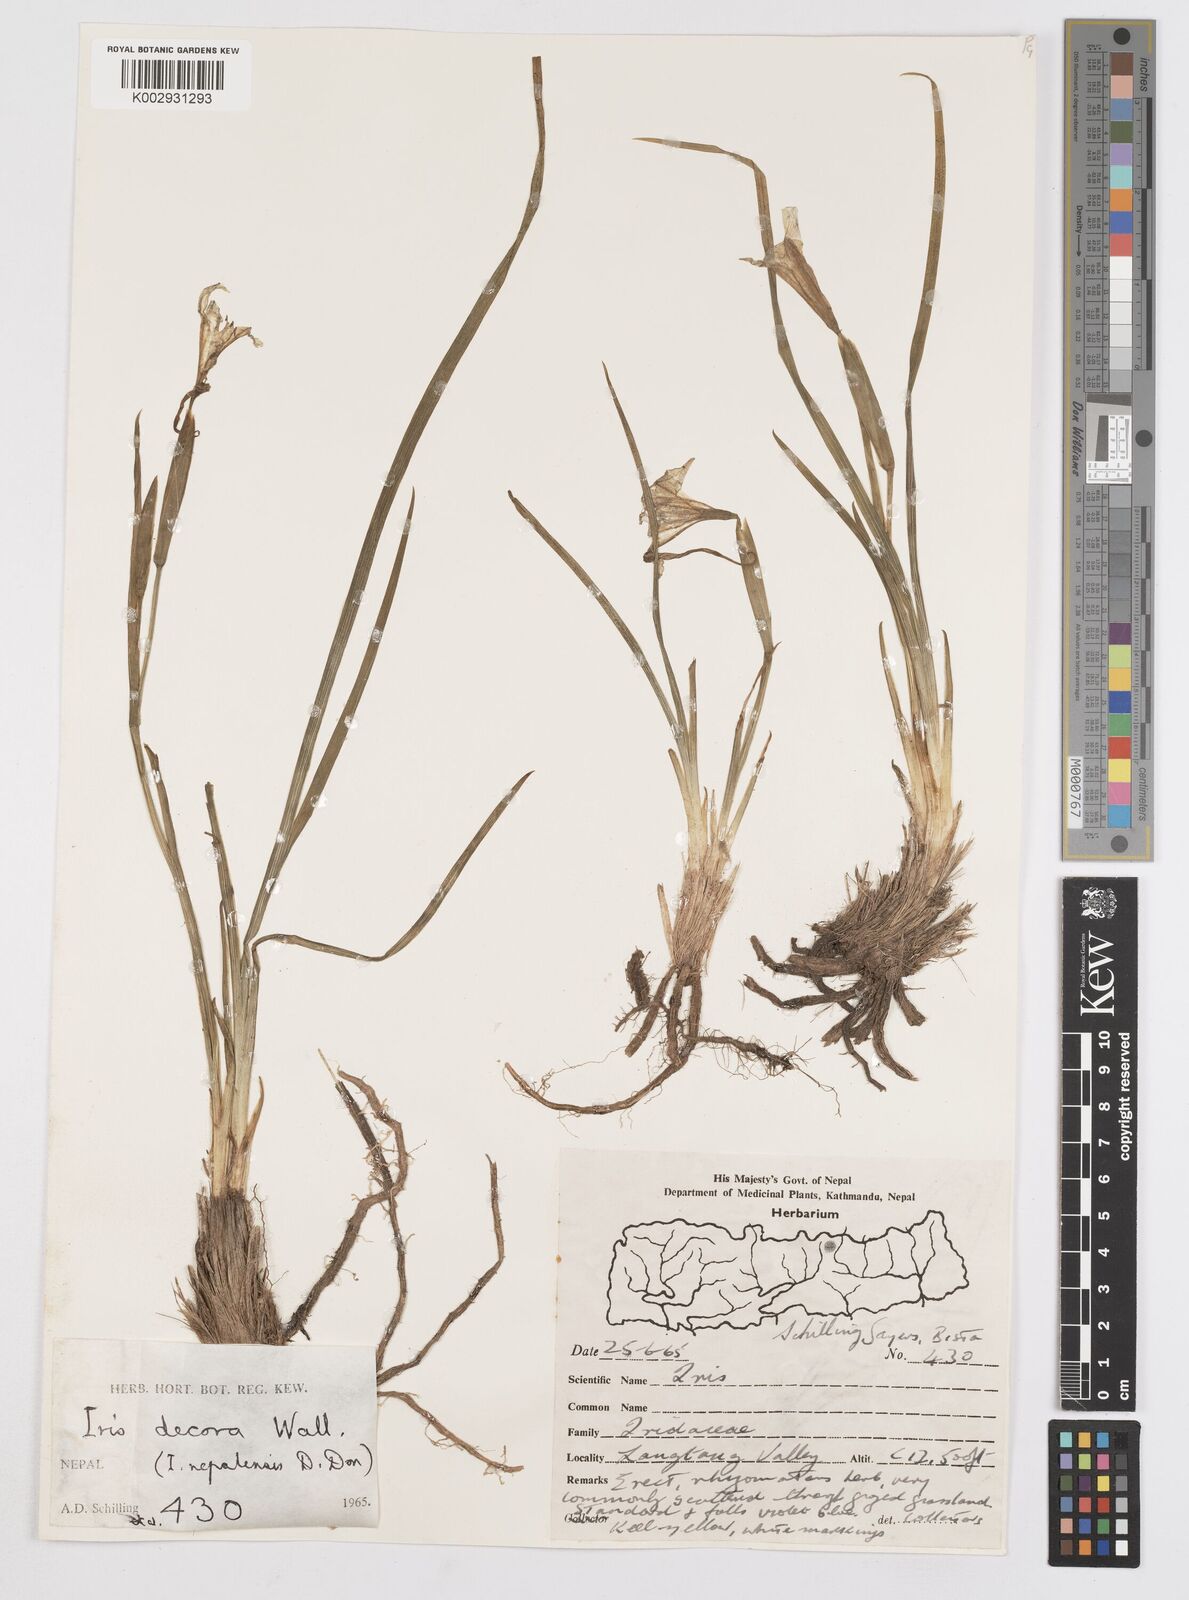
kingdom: Plantae
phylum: Tracheophyta
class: Liliopsida
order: Asparagales
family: Iridaceae
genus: Iris
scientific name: Iris decora
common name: Nepal iris
